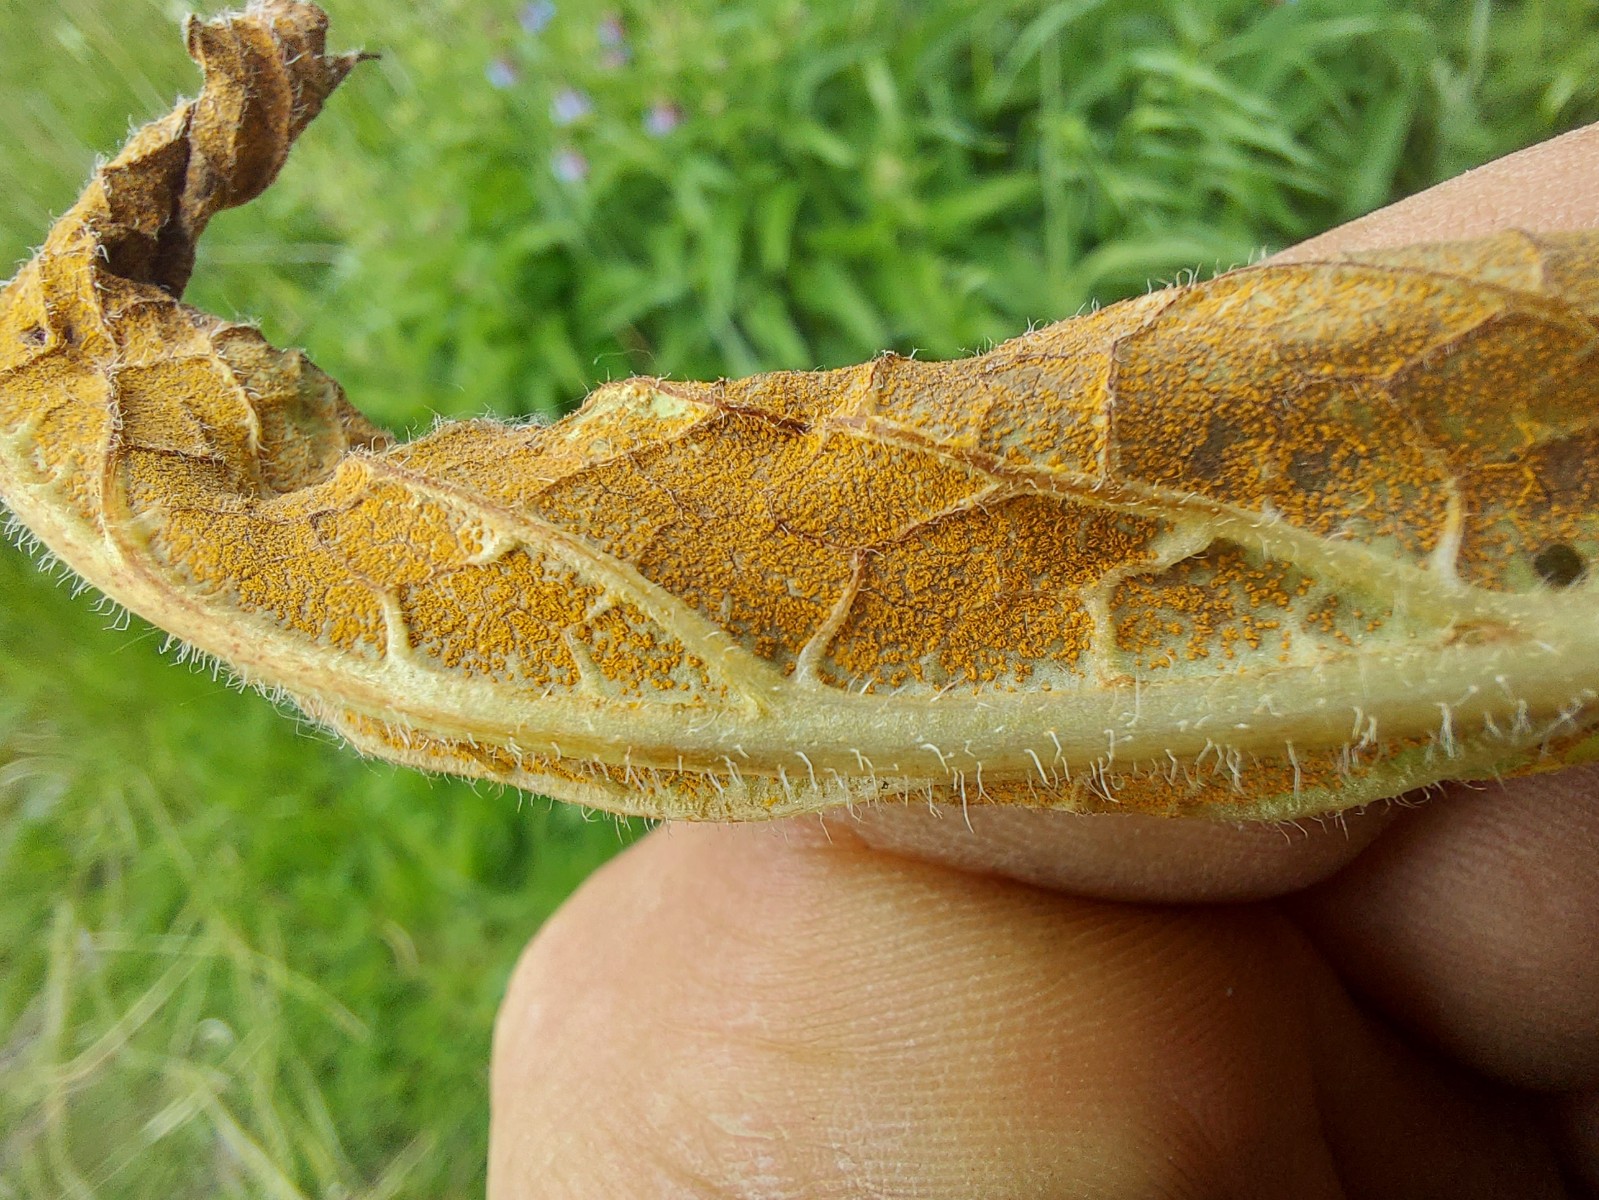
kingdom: Fungi
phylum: Basidiomycota
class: Pucciniomycetes
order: Pucciniales
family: Pucciniastraceae
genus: Pucciniastrum
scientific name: Pucciniastrum symphyti
